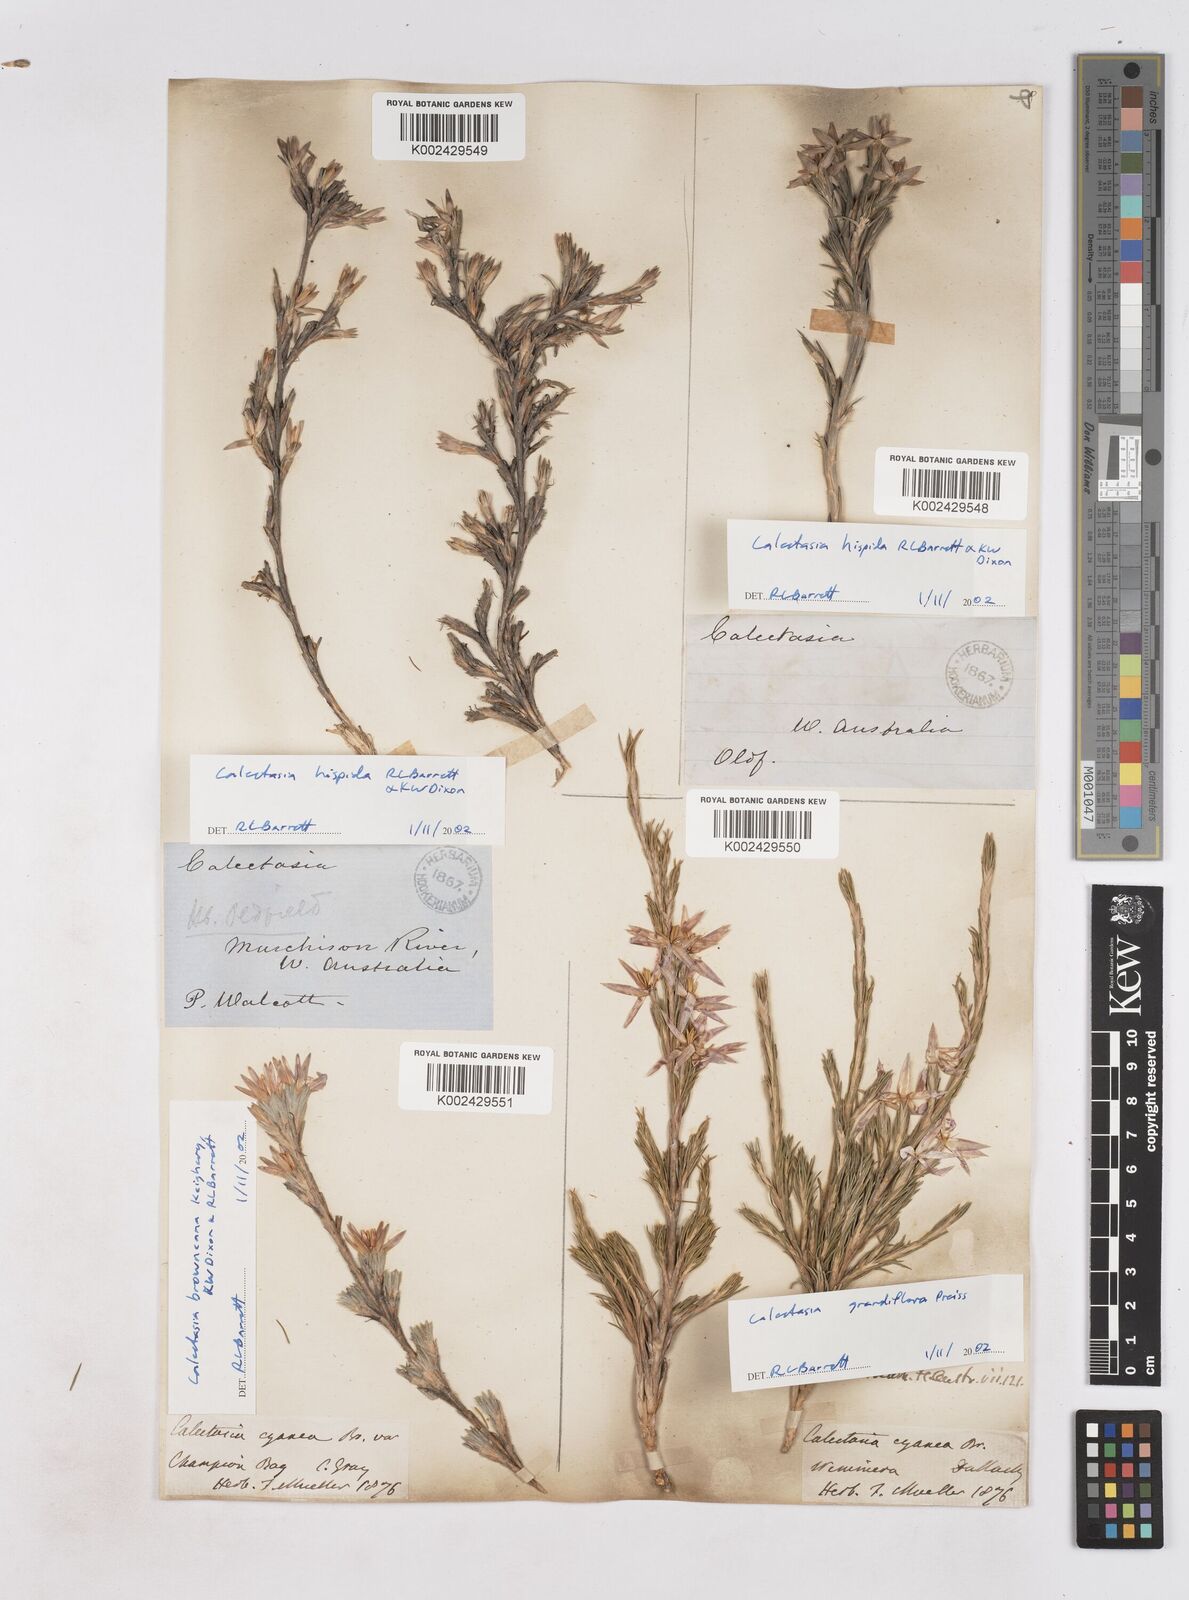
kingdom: Plantae
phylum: Tracheophyta
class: Liliopsida
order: Arecales
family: Dasypogonaceae
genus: Calectasia
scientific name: Calectasia browneana
